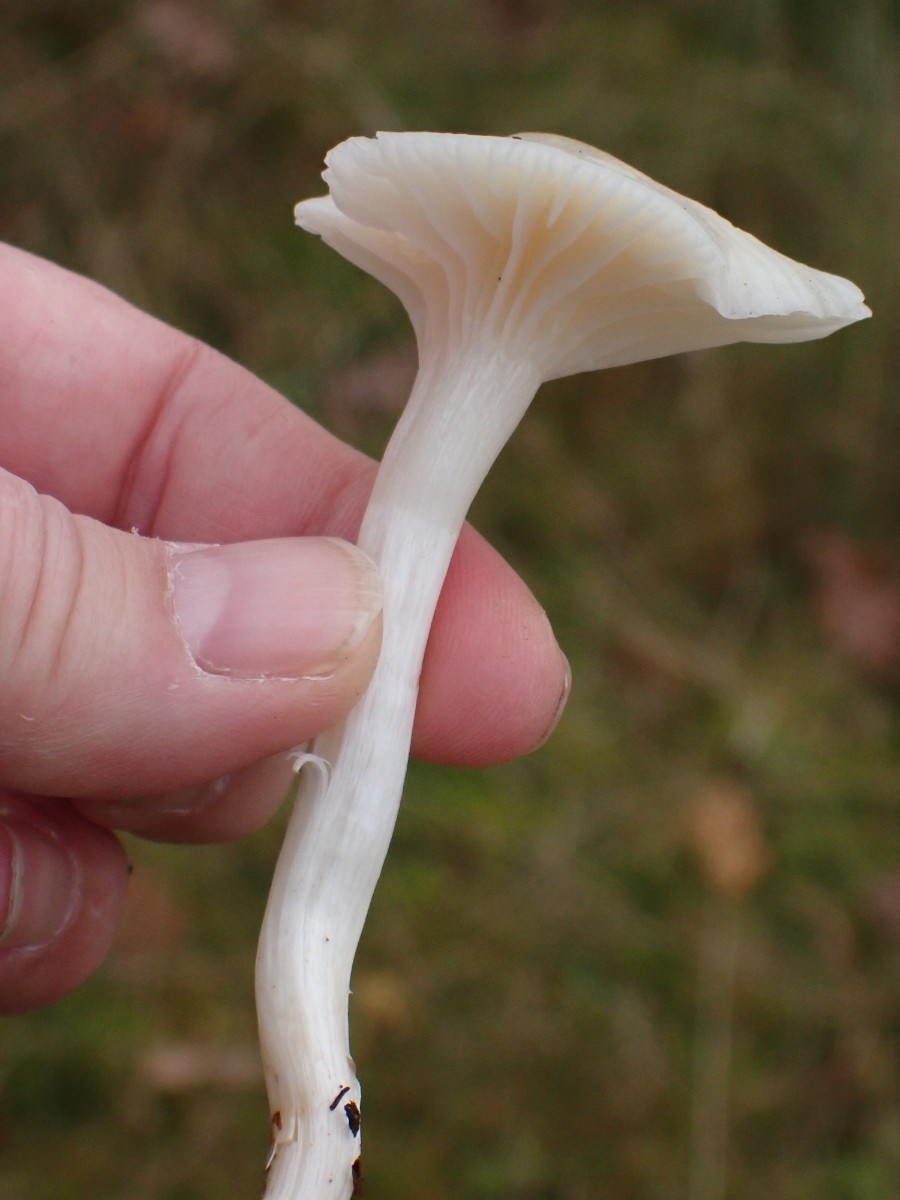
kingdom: Fungi
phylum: Basidiomycota
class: Agaricomycetes
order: Agaricales
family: Hygrophoraceae
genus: Cuphophyllus
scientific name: Cuphophyllus virgineus
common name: snehvid vokshat
